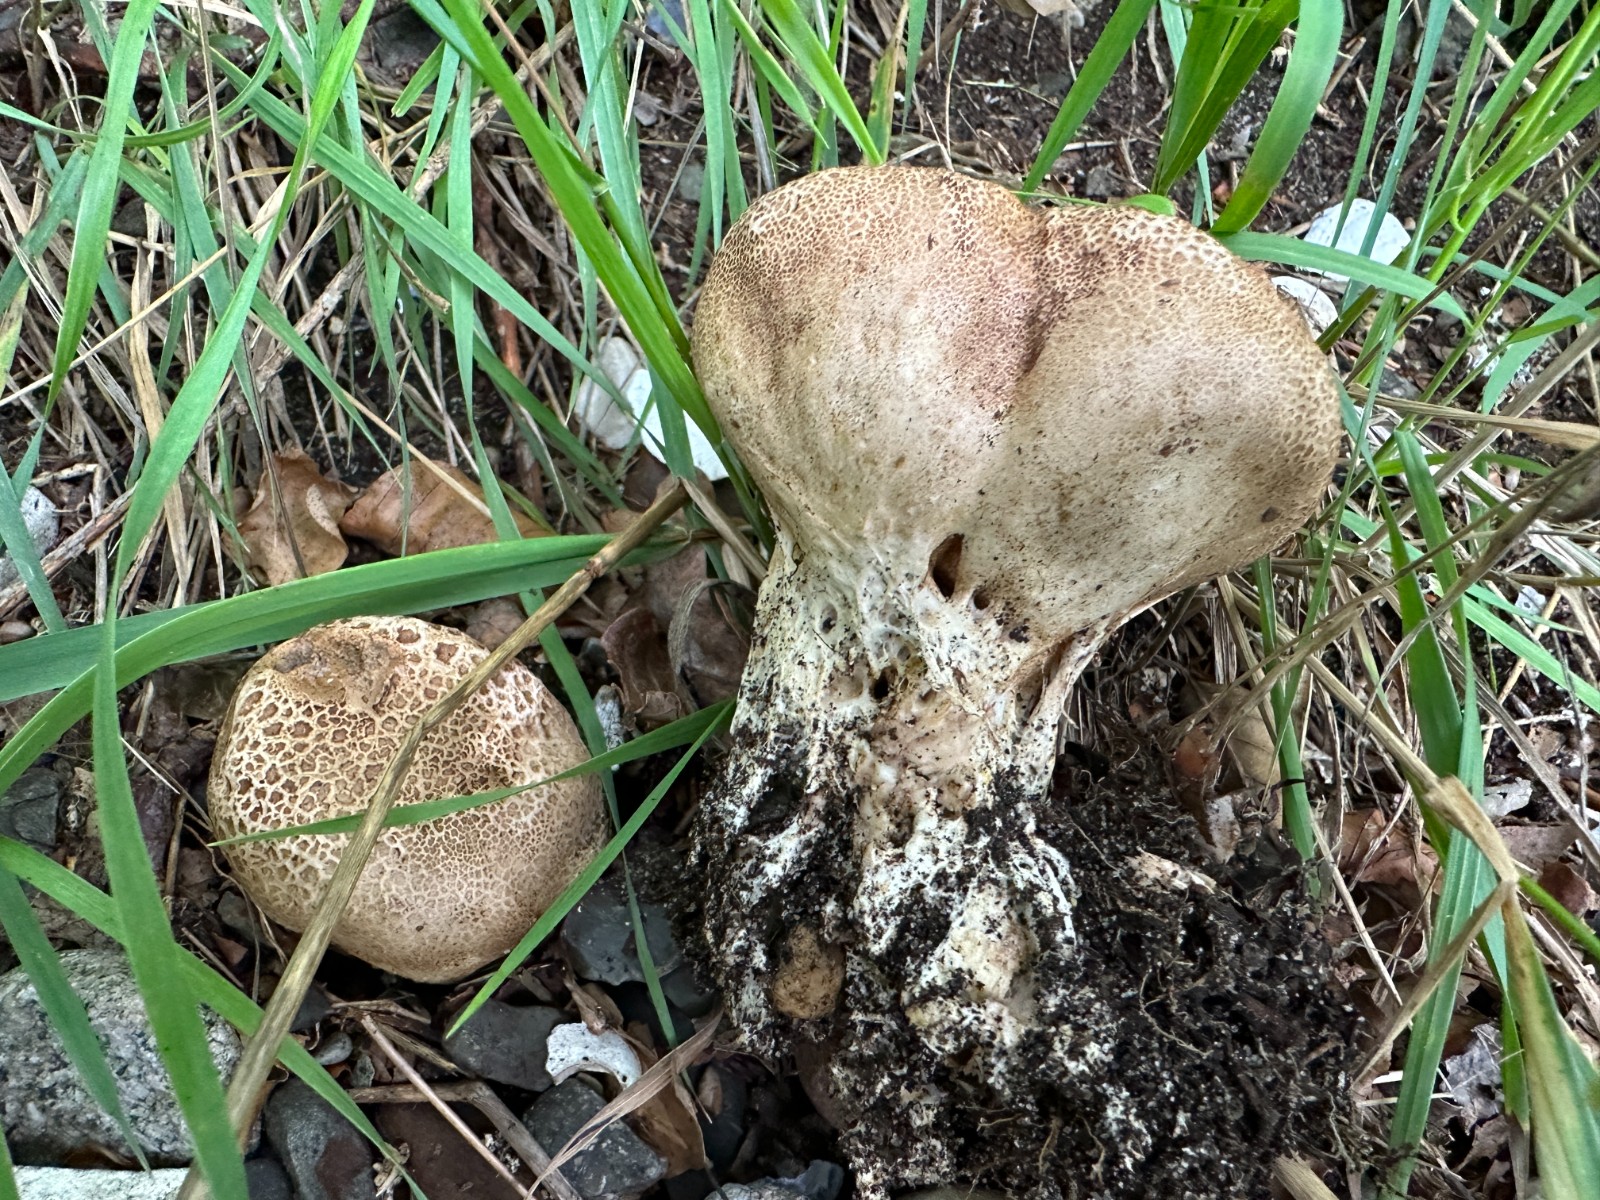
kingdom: Fungi
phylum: Basidiomycota
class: Agaricomycetes
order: Boletales
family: Sclerodermataceae
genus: Scleroderma
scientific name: Scleroderma verrucosum
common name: stilket bruskbold
